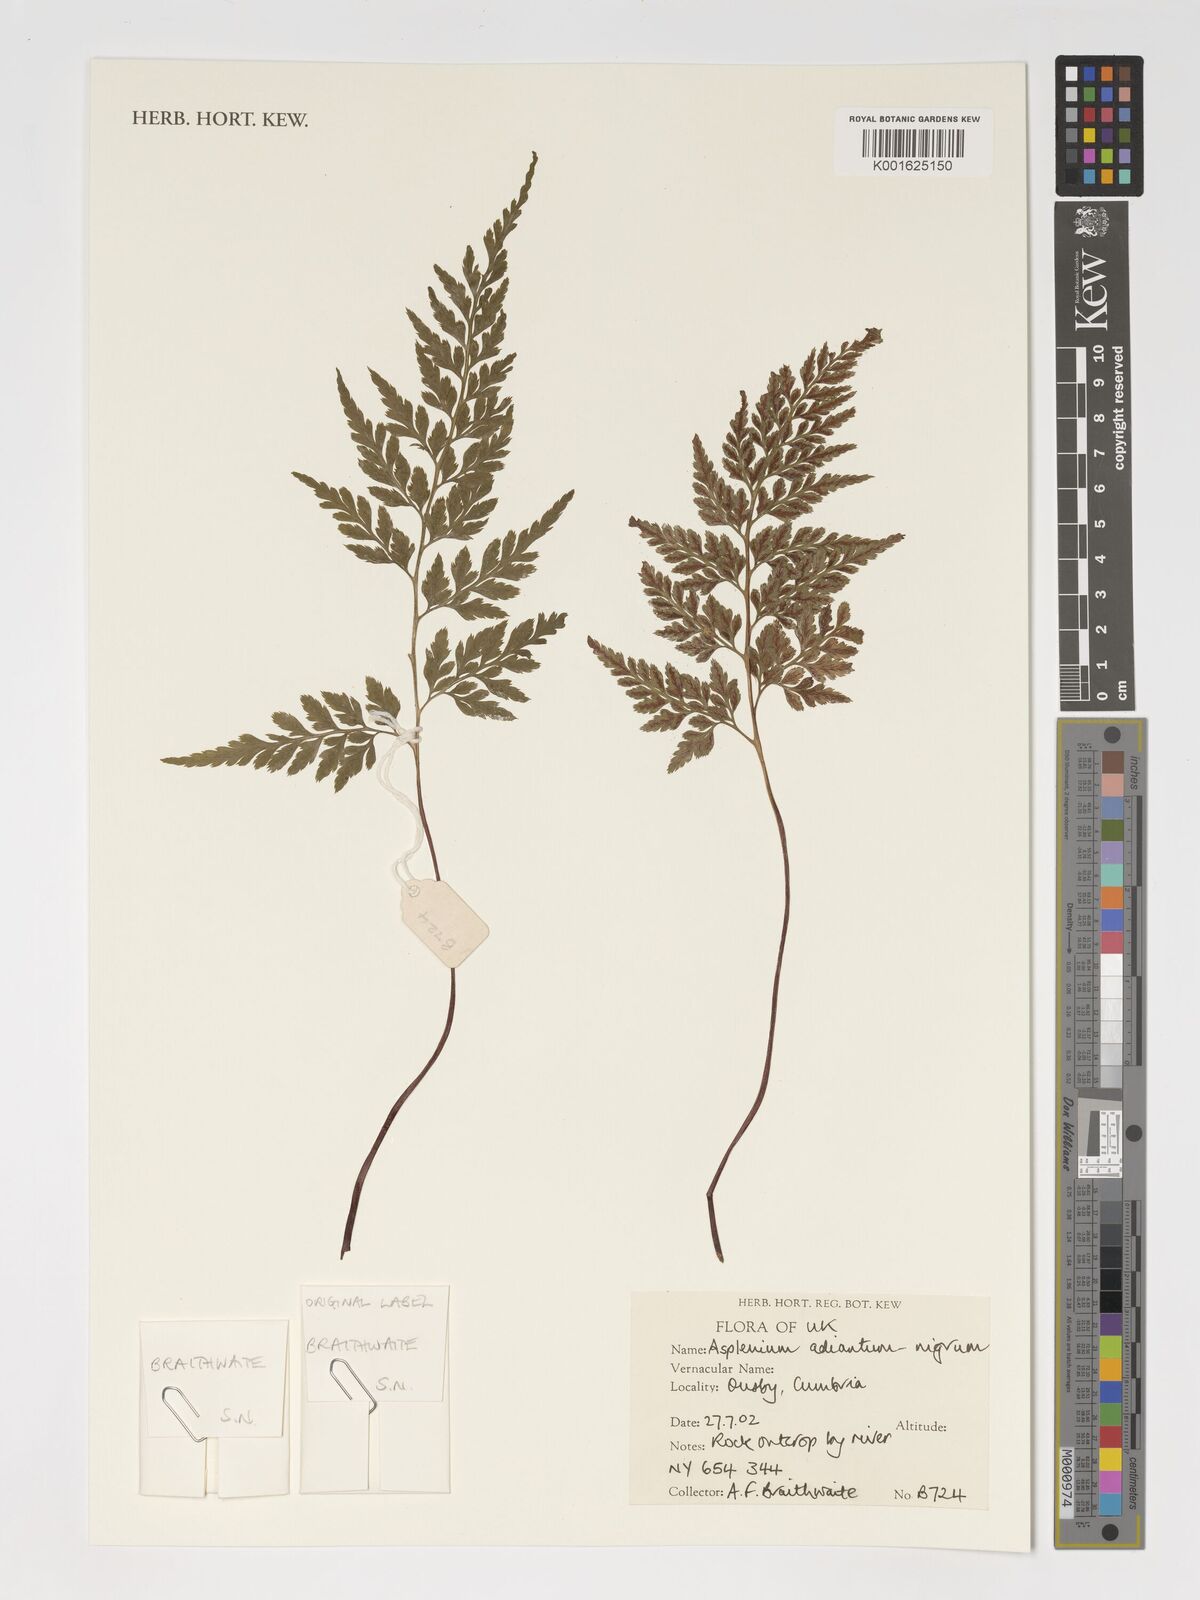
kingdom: Plantae
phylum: Tracheophyta
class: Polypodiopsida
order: Polypodiales
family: Aspleniaceae
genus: Asplenium
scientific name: Asplenium adiantum-nigrum
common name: Black spleenwort
